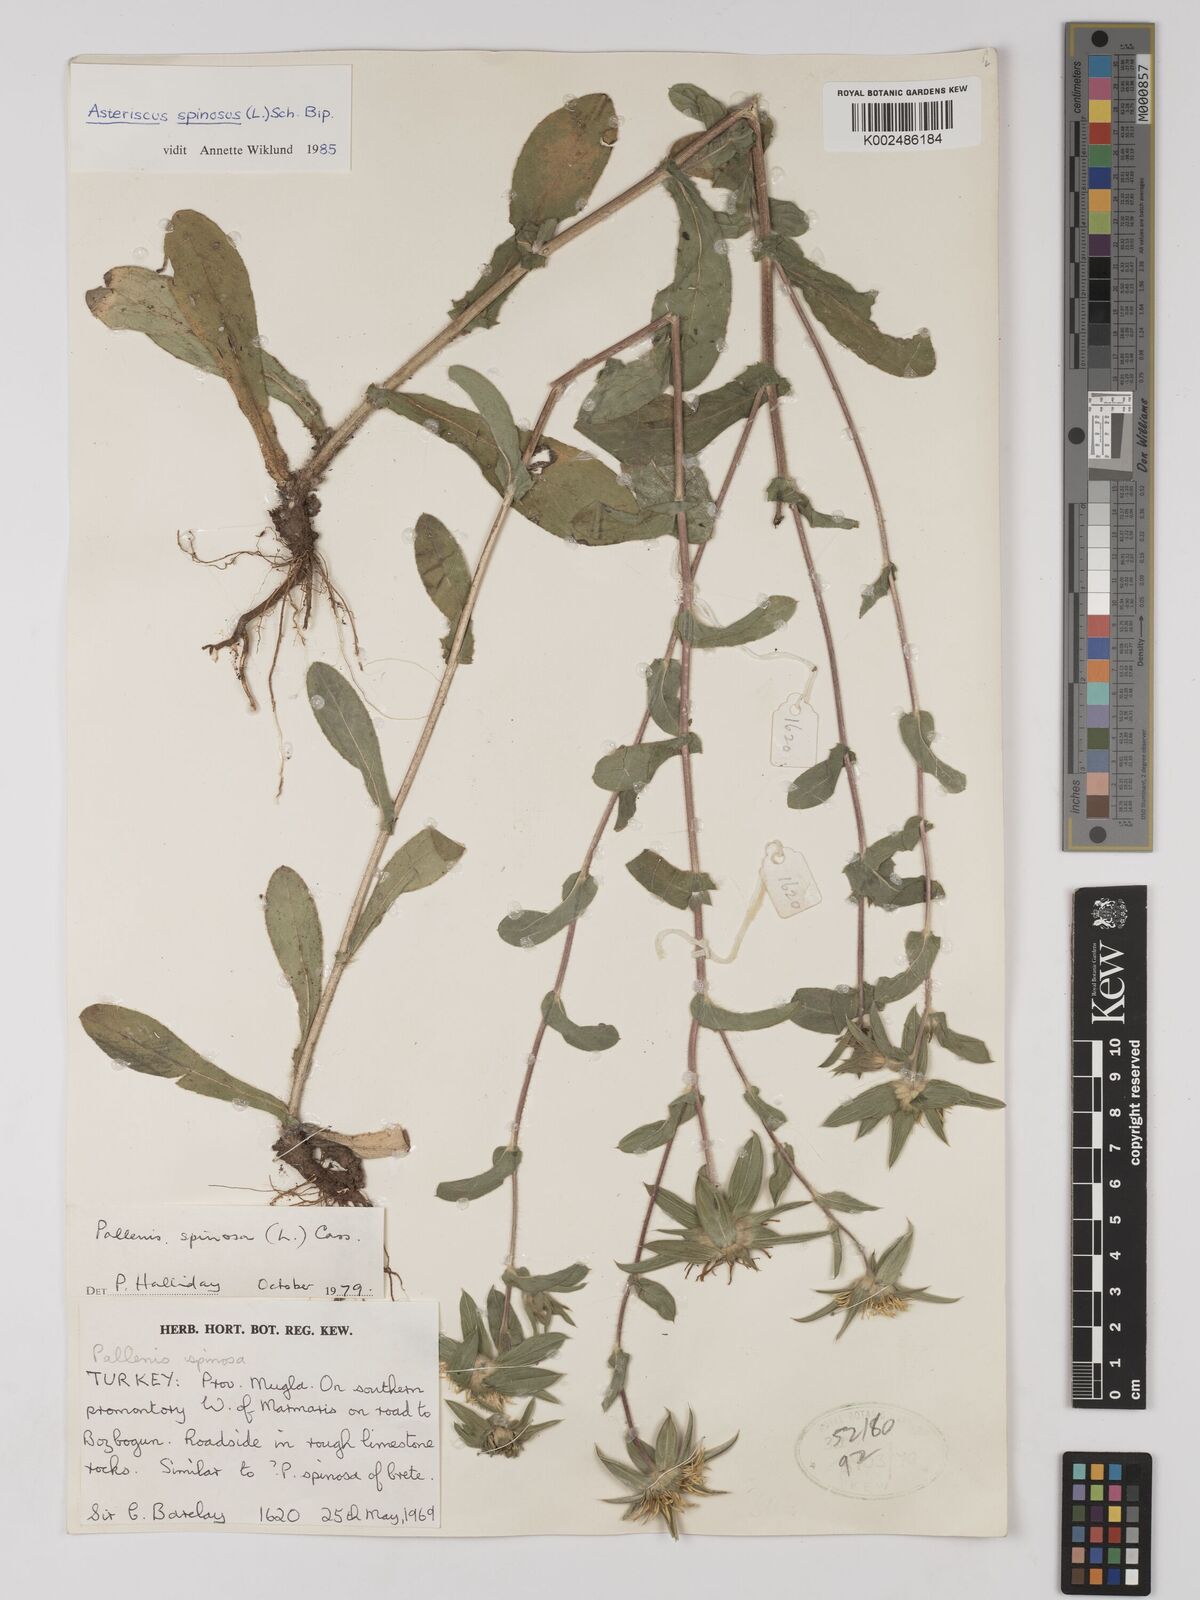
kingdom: Plantae
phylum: Tracheophyta
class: Magnoliopsida
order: Asterales
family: Asteraceae
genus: Pallenis
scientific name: Pallenis spinosa
